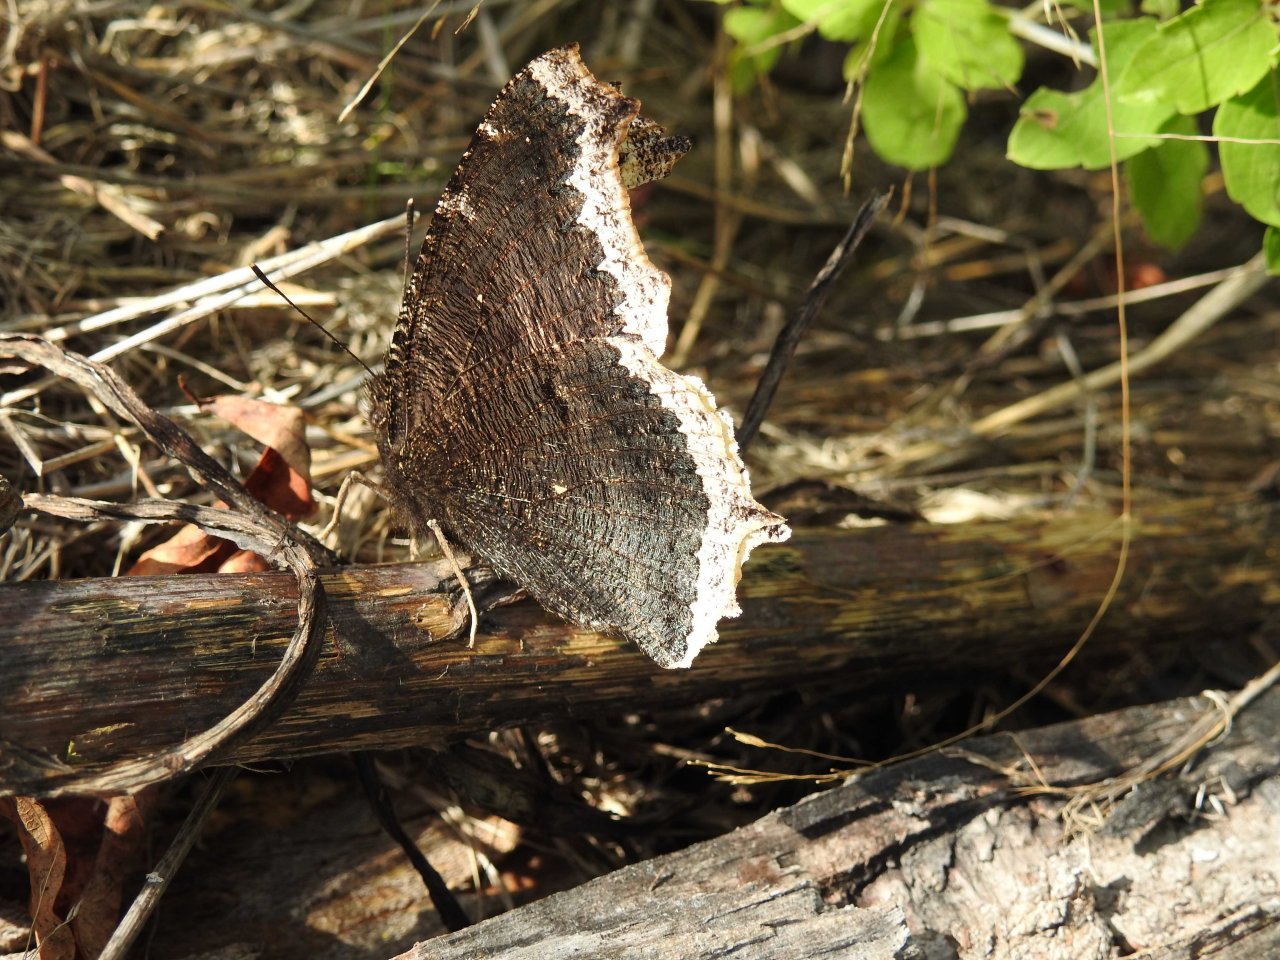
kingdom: Animalia
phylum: Arthropoda
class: Insecta
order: Lepidoptera
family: Nymphalidae
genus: Nymphalis
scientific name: Nymphalis antiopa
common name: Mourning Cloak
